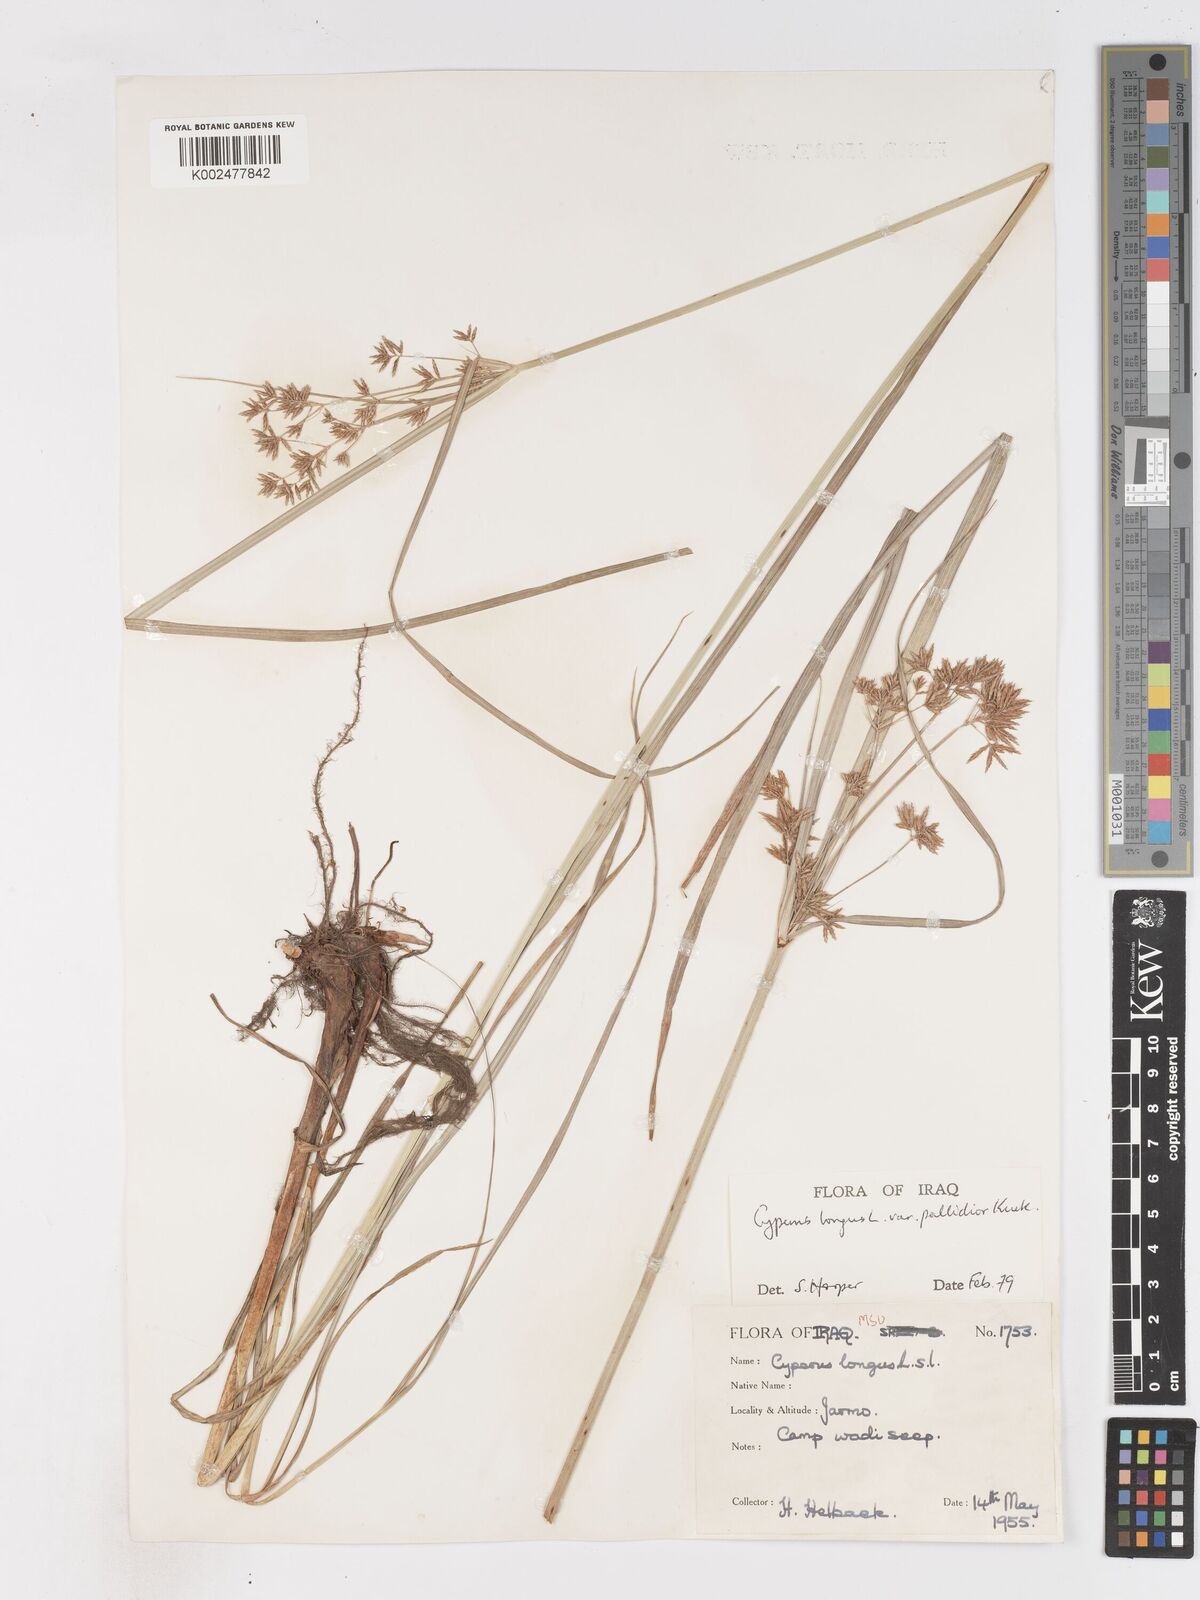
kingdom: Plantae
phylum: Tracheophyta
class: Liliopsida
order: Poales
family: Cyperaceae
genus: Cyperus
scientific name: Cyperus longus
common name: Galingale
